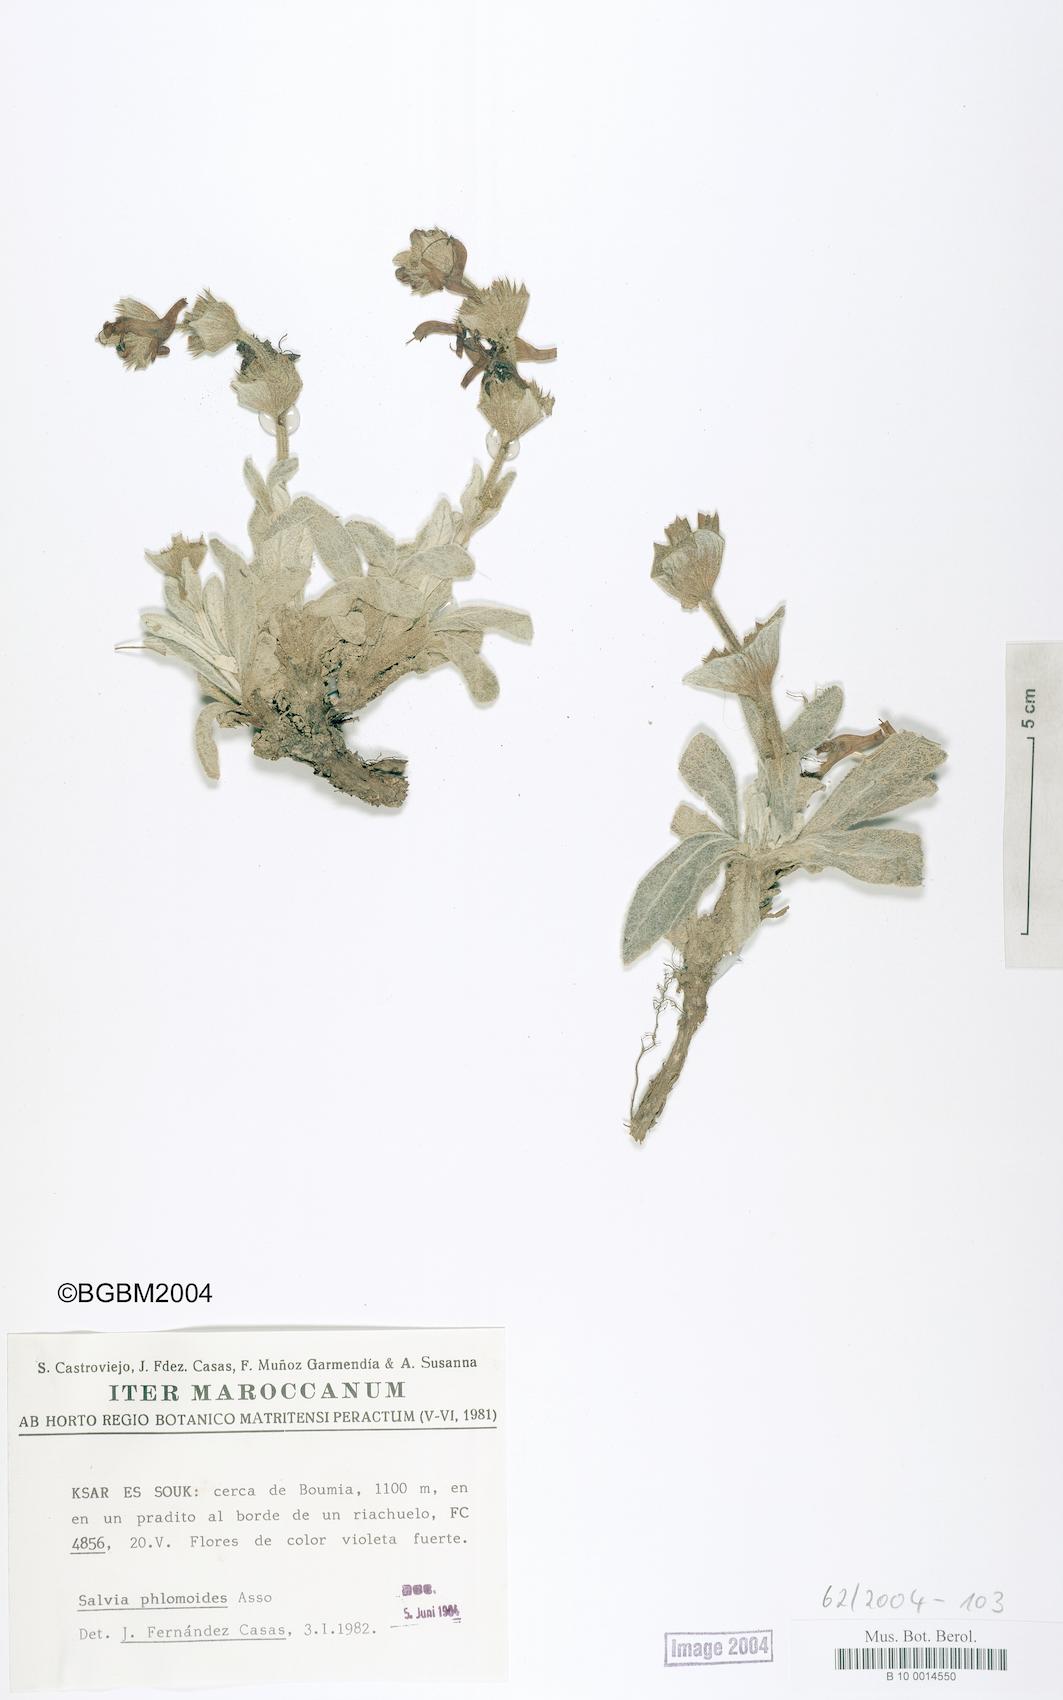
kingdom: Plantae
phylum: Tracheophyta
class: Magnoliopsida
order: Lamiales
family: Lamiaceae
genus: Salvia
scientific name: Salvia phlomoides
